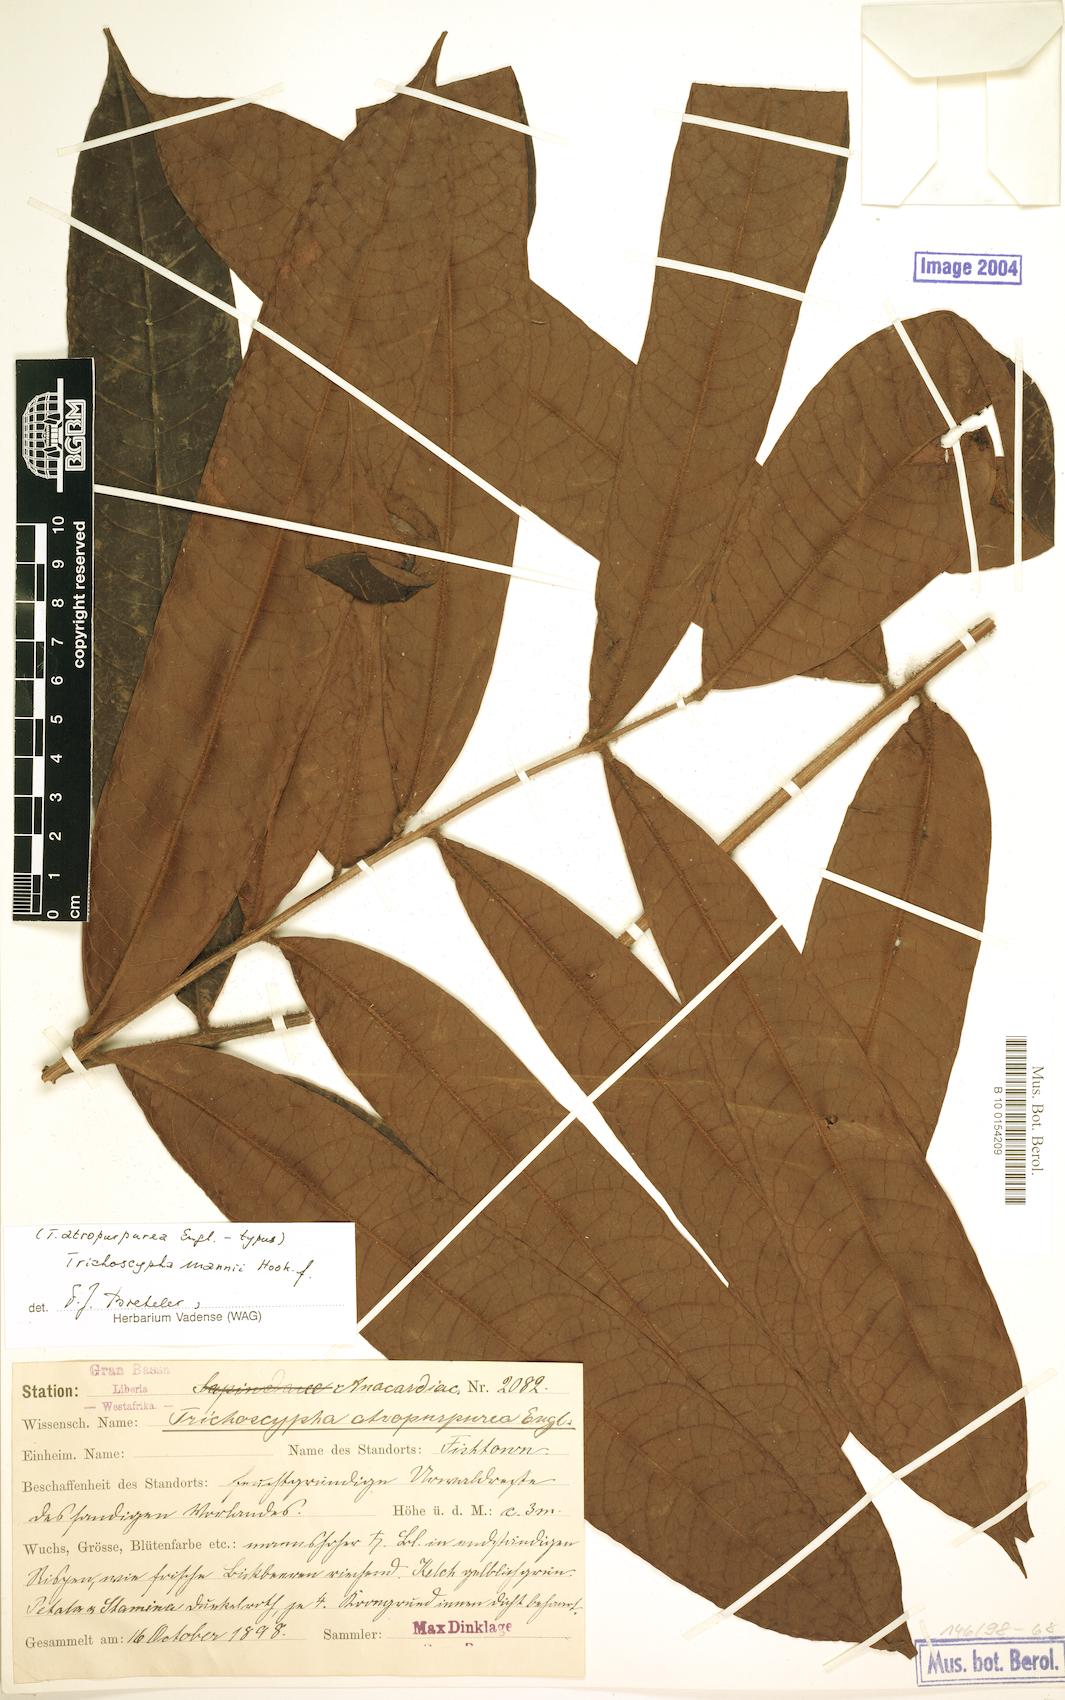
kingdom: Plantae
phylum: Tracheophyta
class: Magnoliopsida
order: Sapindales
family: Anacardiaceae
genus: Trichoscypha
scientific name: Trichoscypha mannii
